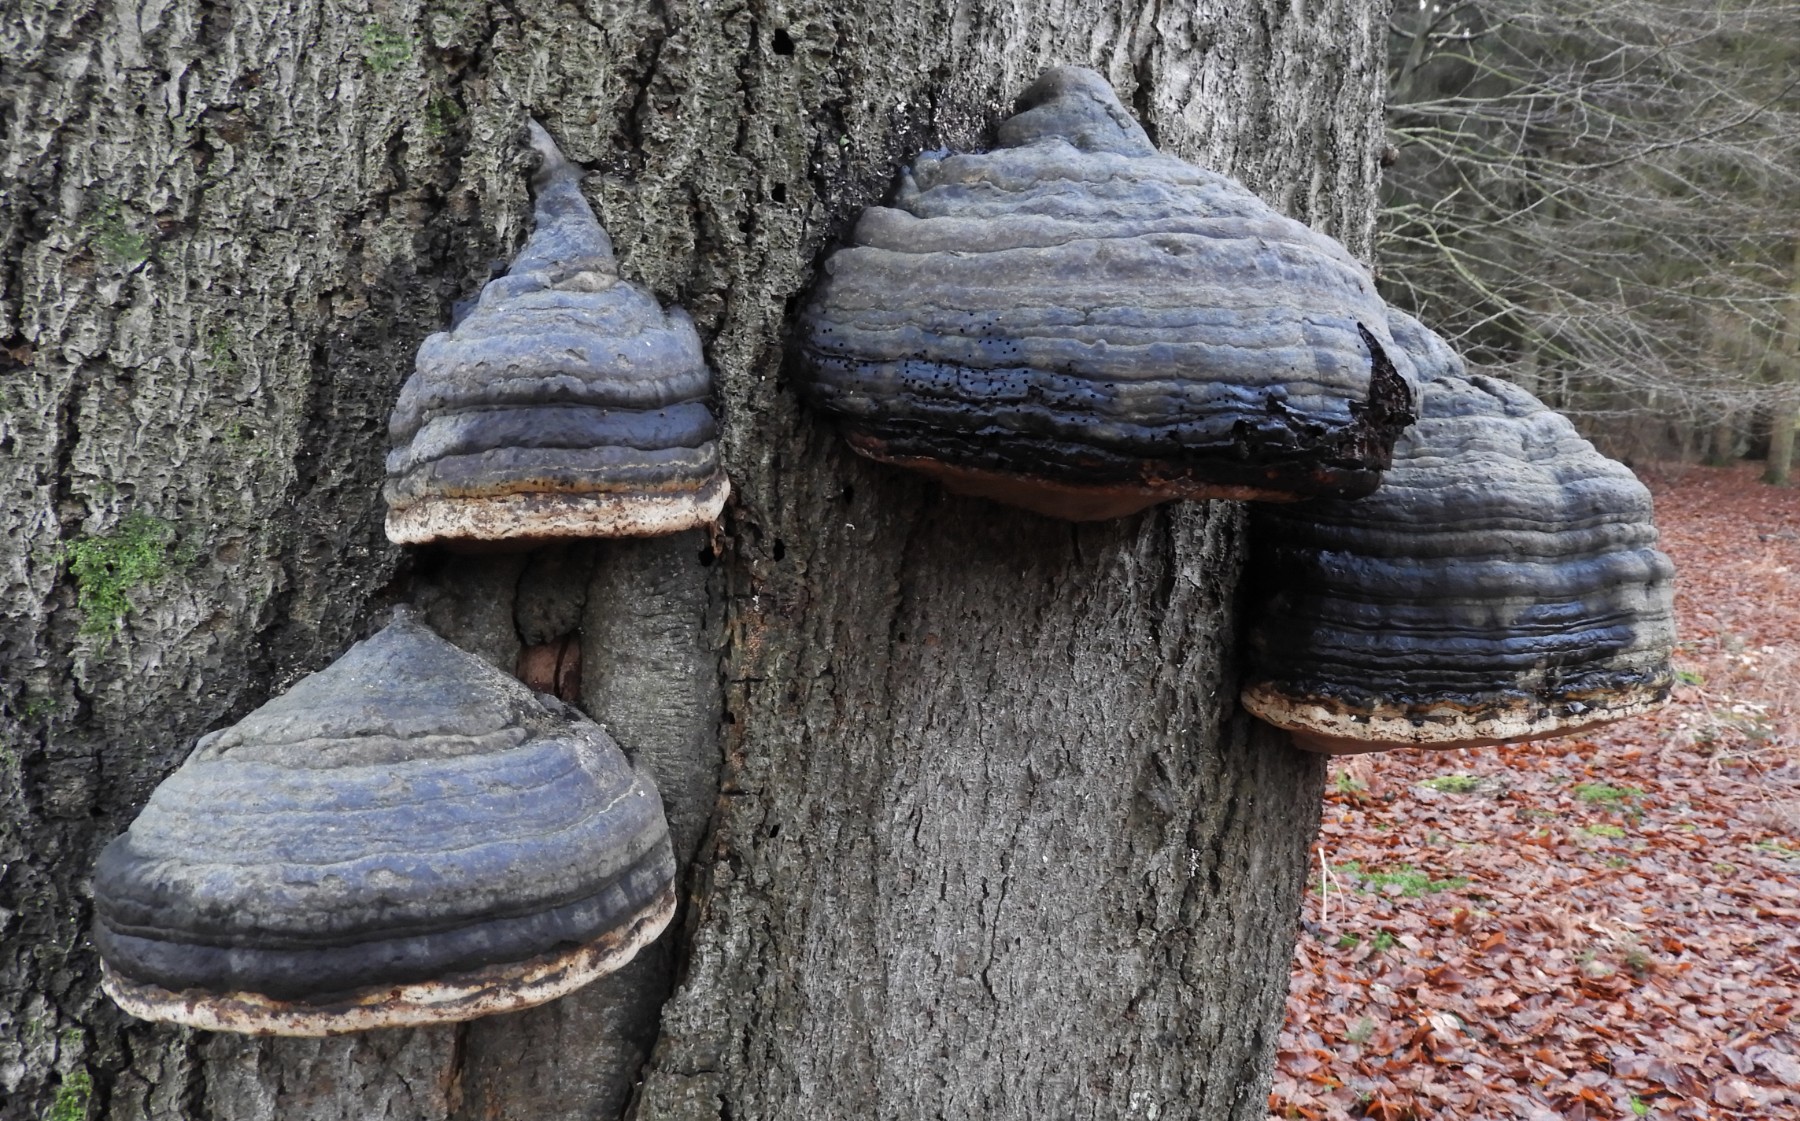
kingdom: Fungi
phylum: Basidiomycota
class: Agaricomycetes
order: Polyporales
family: Polyporaceae
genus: Fomes
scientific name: Fomes fomentarius
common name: tøndersvamp
